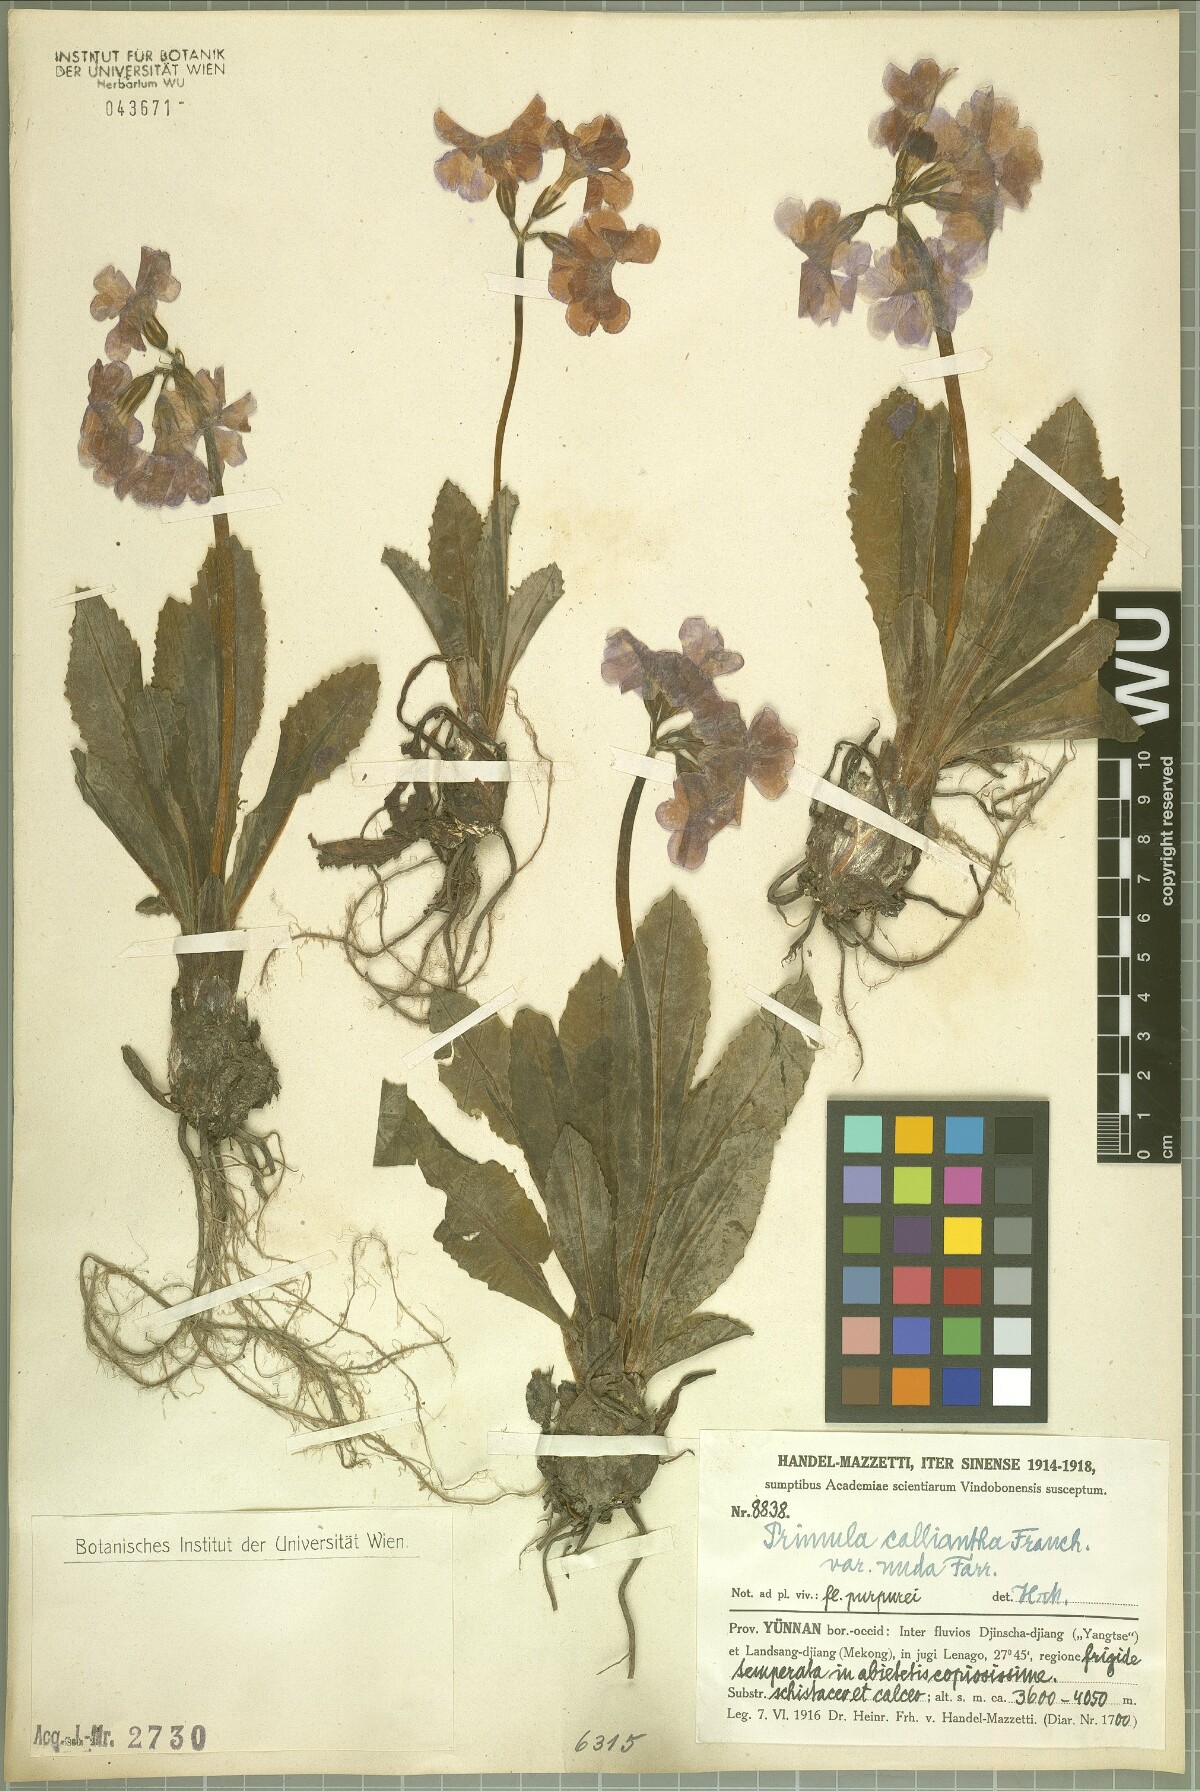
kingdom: Plantae
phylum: Tracheophyta
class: Magnoliopsida
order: Ericales
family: Primulaceae
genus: Primula
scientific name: Primula calliantha
